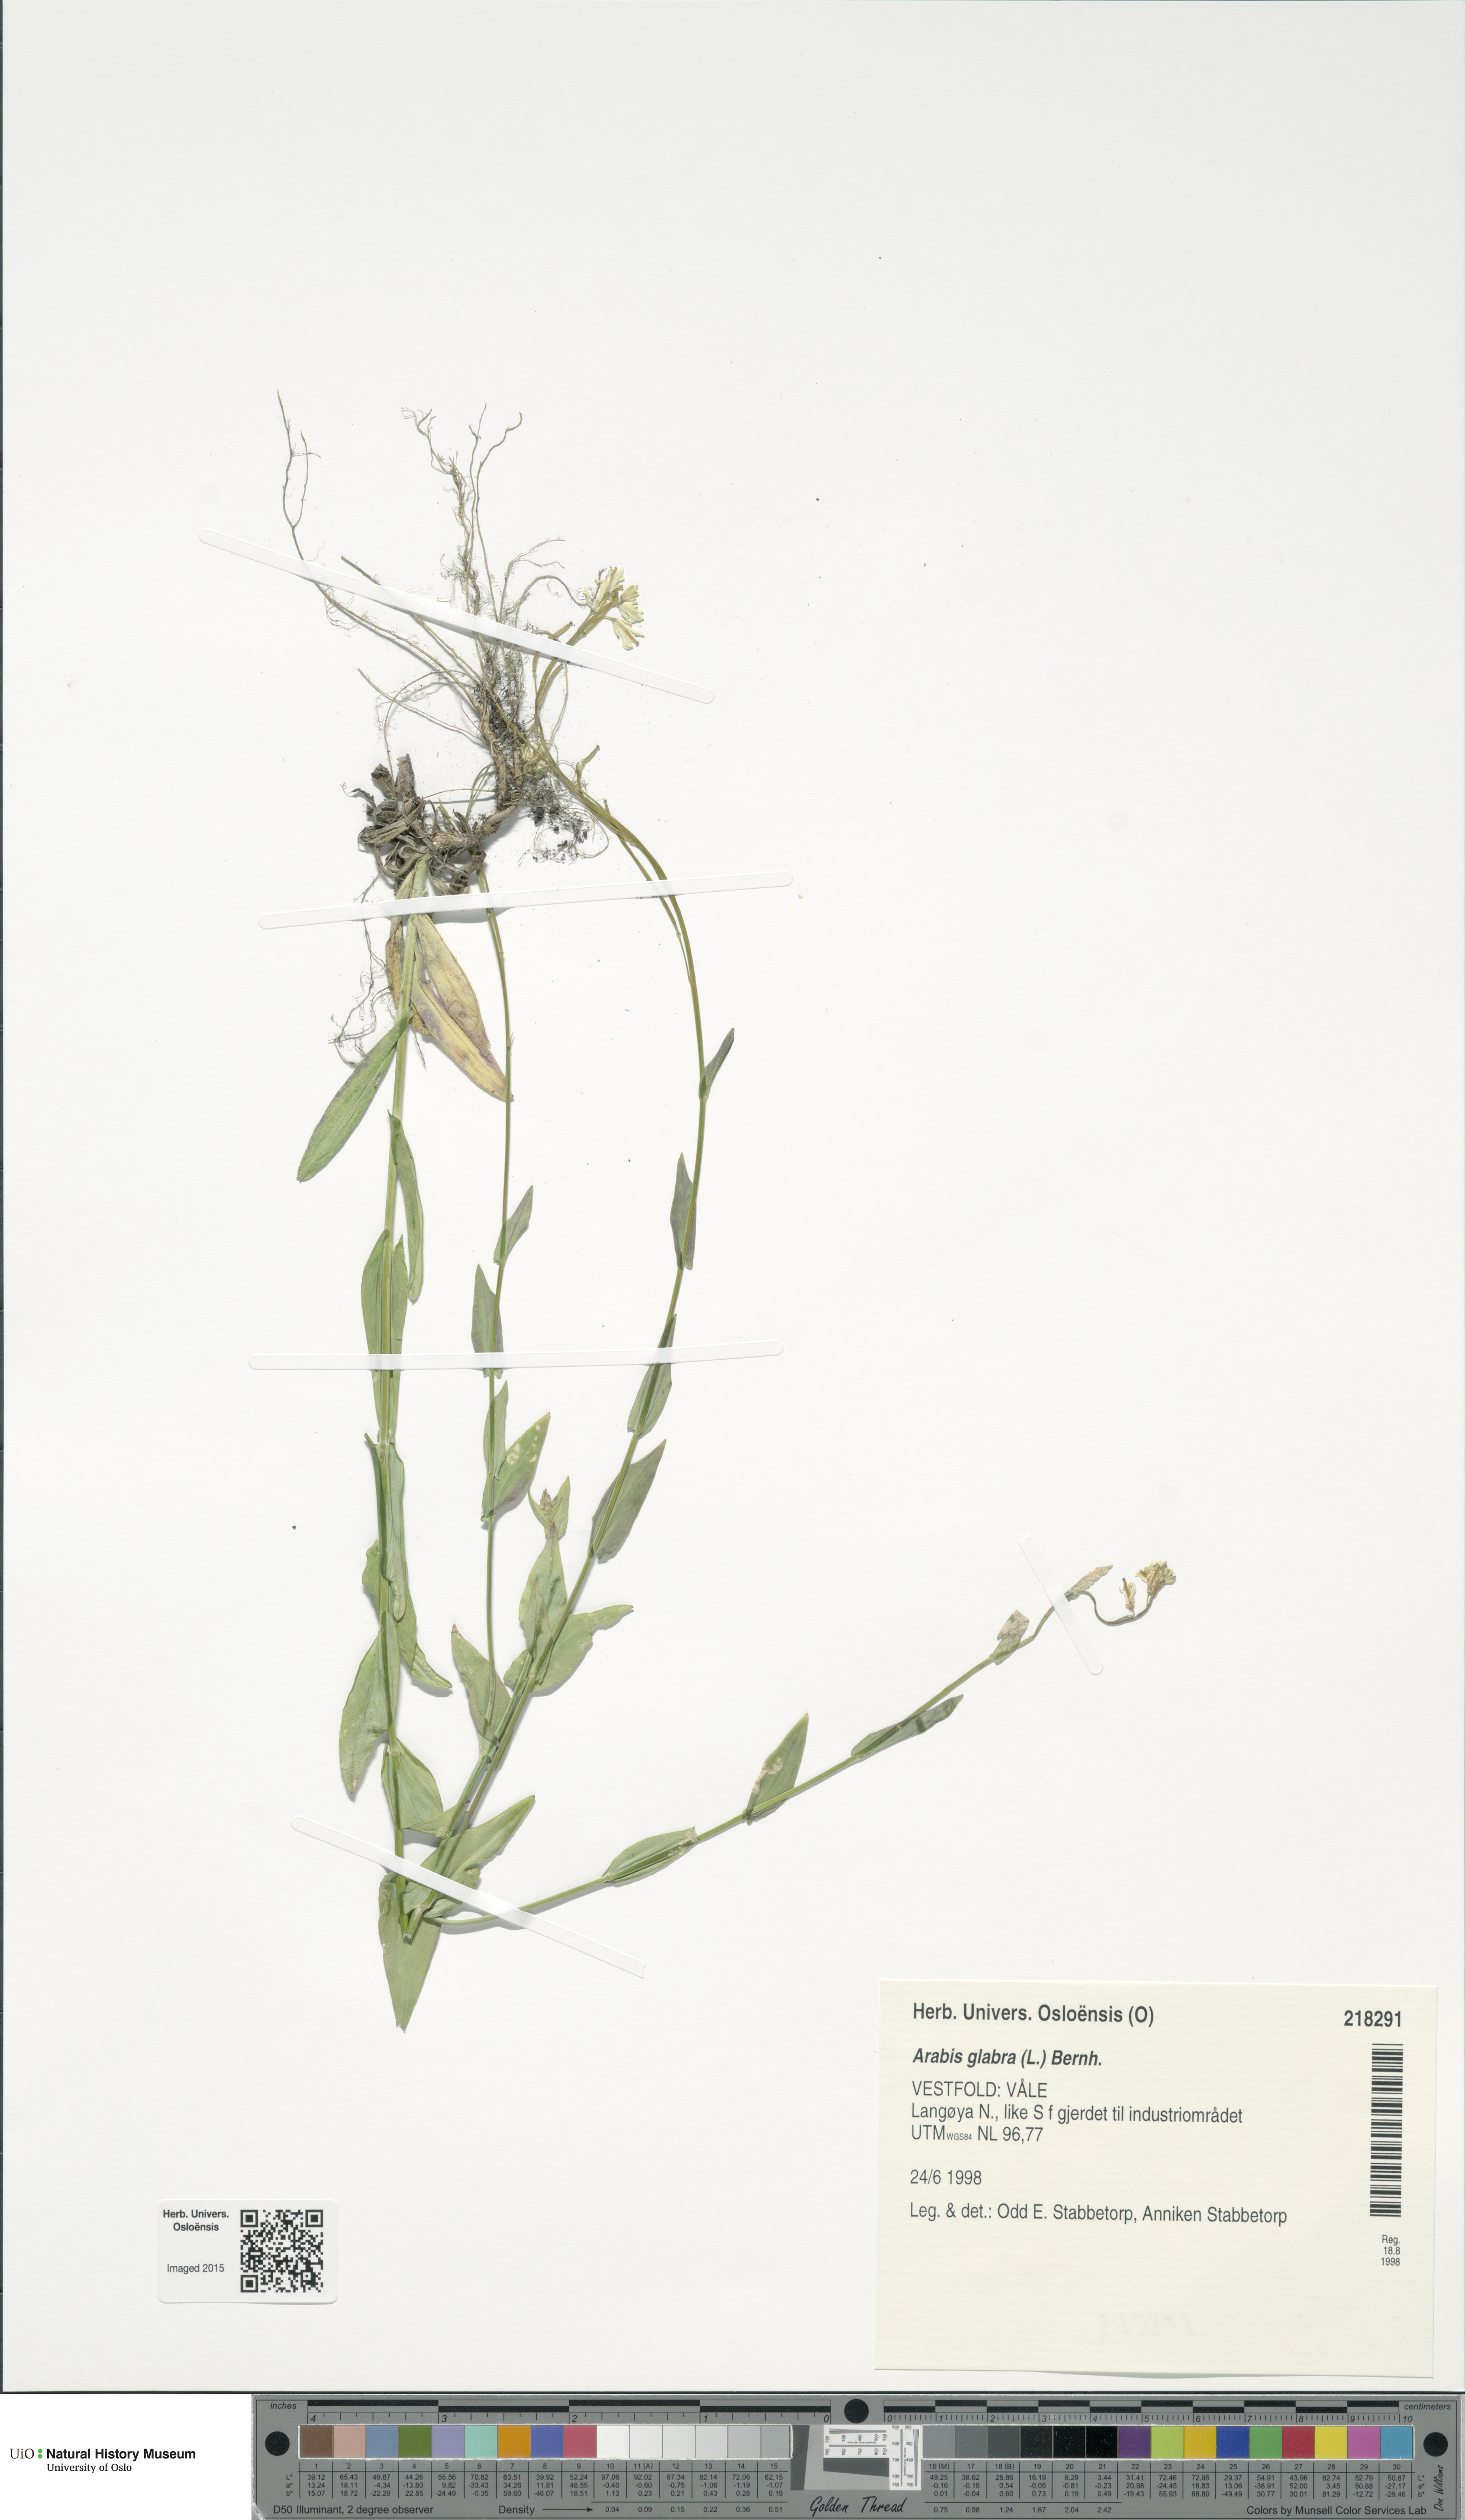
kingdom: Plantae
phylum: Tracheophyta
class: Magnoliopsida
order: Brassicales
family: Brassicaceae
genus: Turritis
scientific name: Turritis glabra
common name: Tower rockcress
